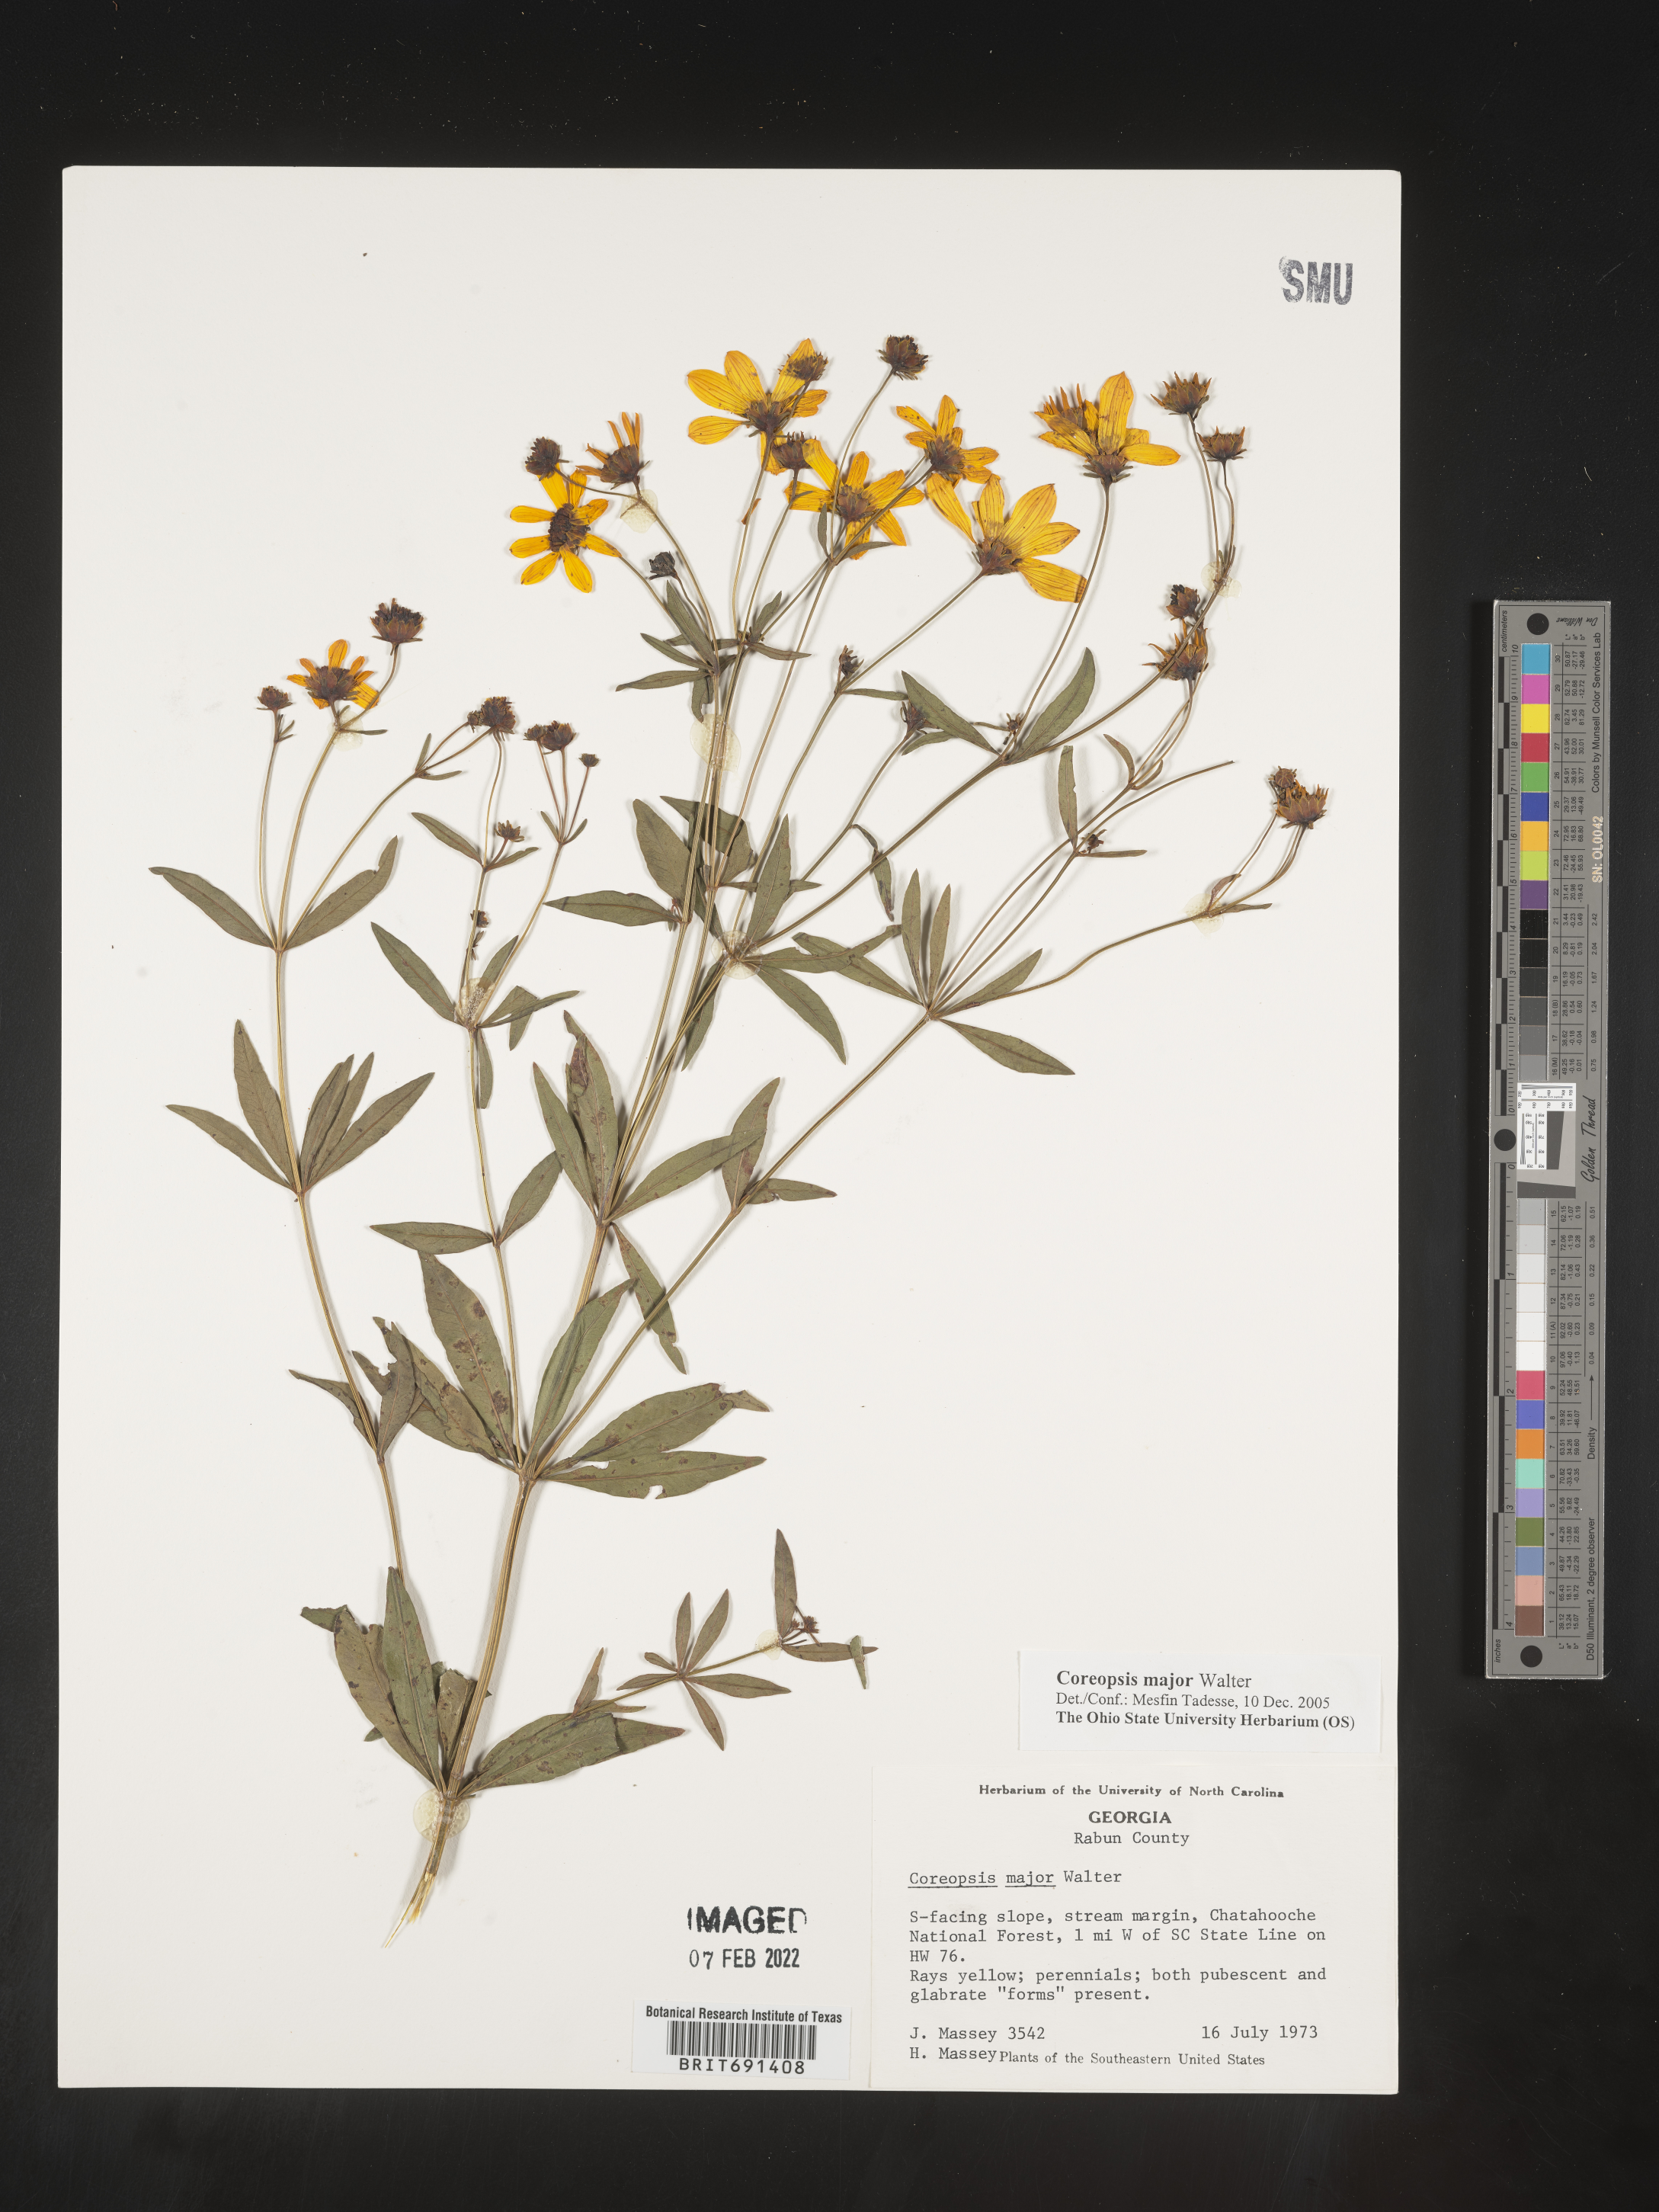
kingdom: Plantae
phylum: Tracheophyta
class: Magnoliopsida
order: Asterales
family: Asteraceae
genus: Coreopsis
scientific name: Coreopsis major
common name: Forest tickseed
